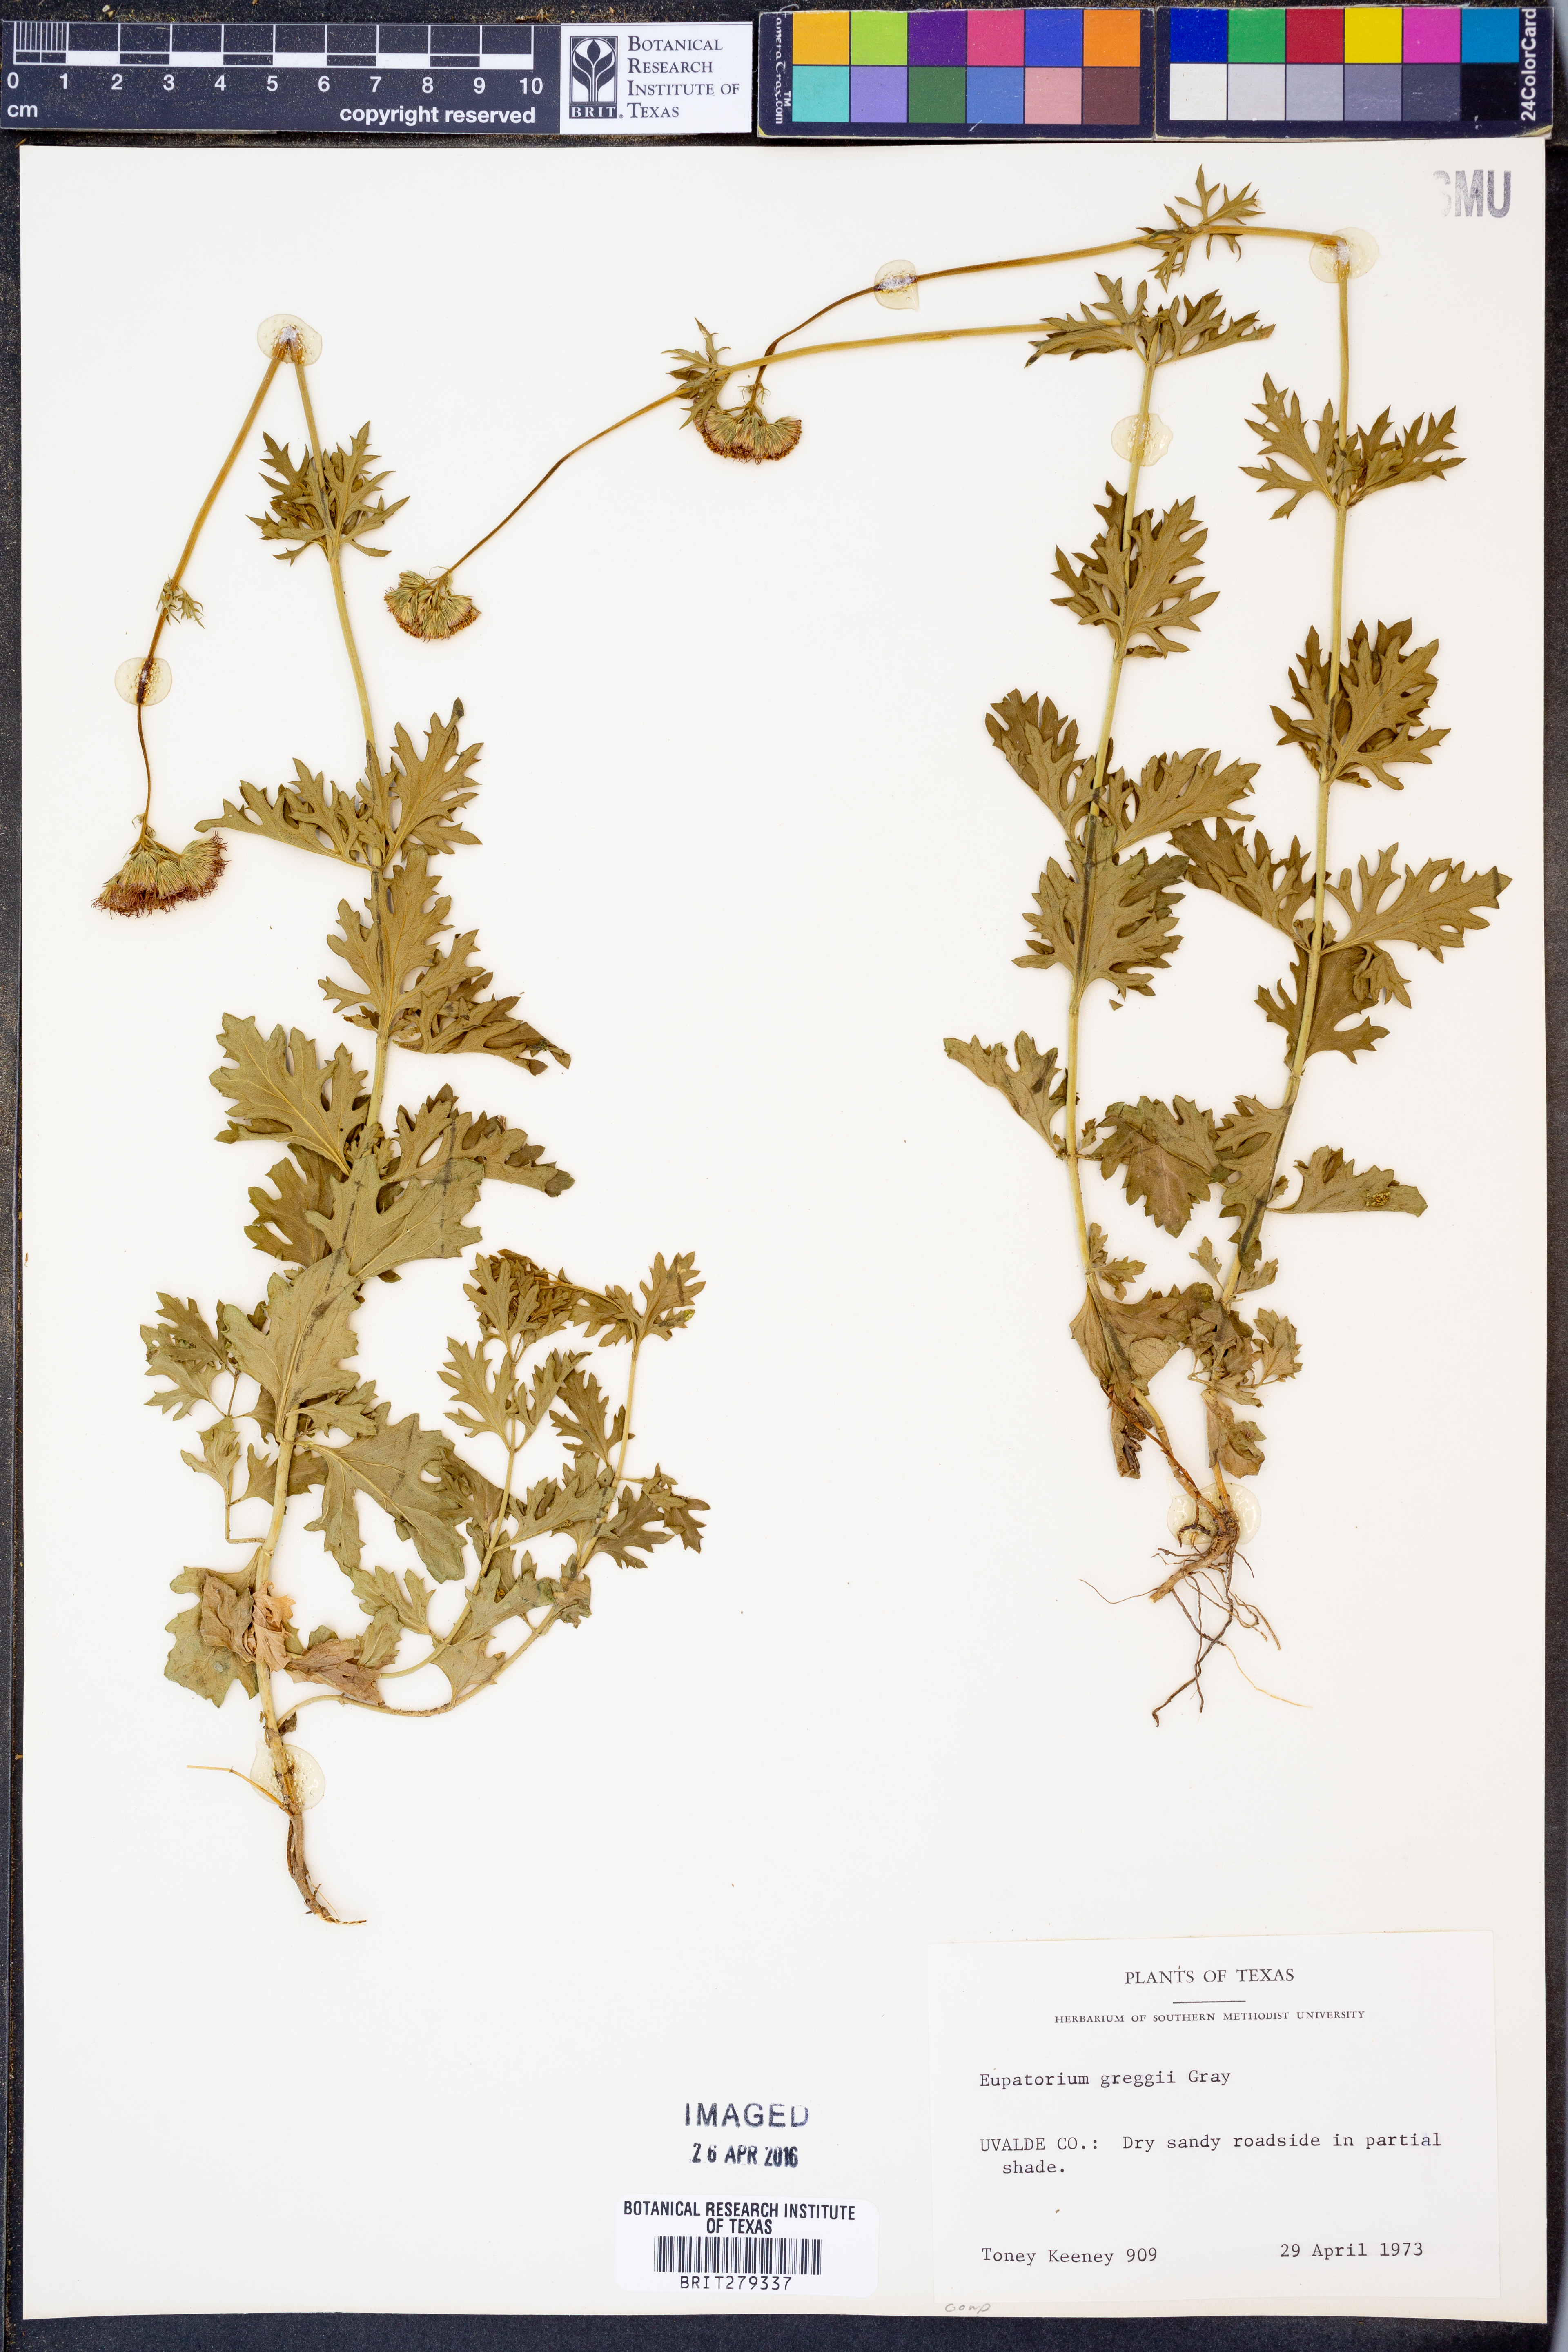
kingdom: Plantae
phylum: Tracheophyta
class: Magnoliopsida
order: Asterales
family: Asteraceae
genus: Conoclinium
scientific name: Conoclinium dissectum
